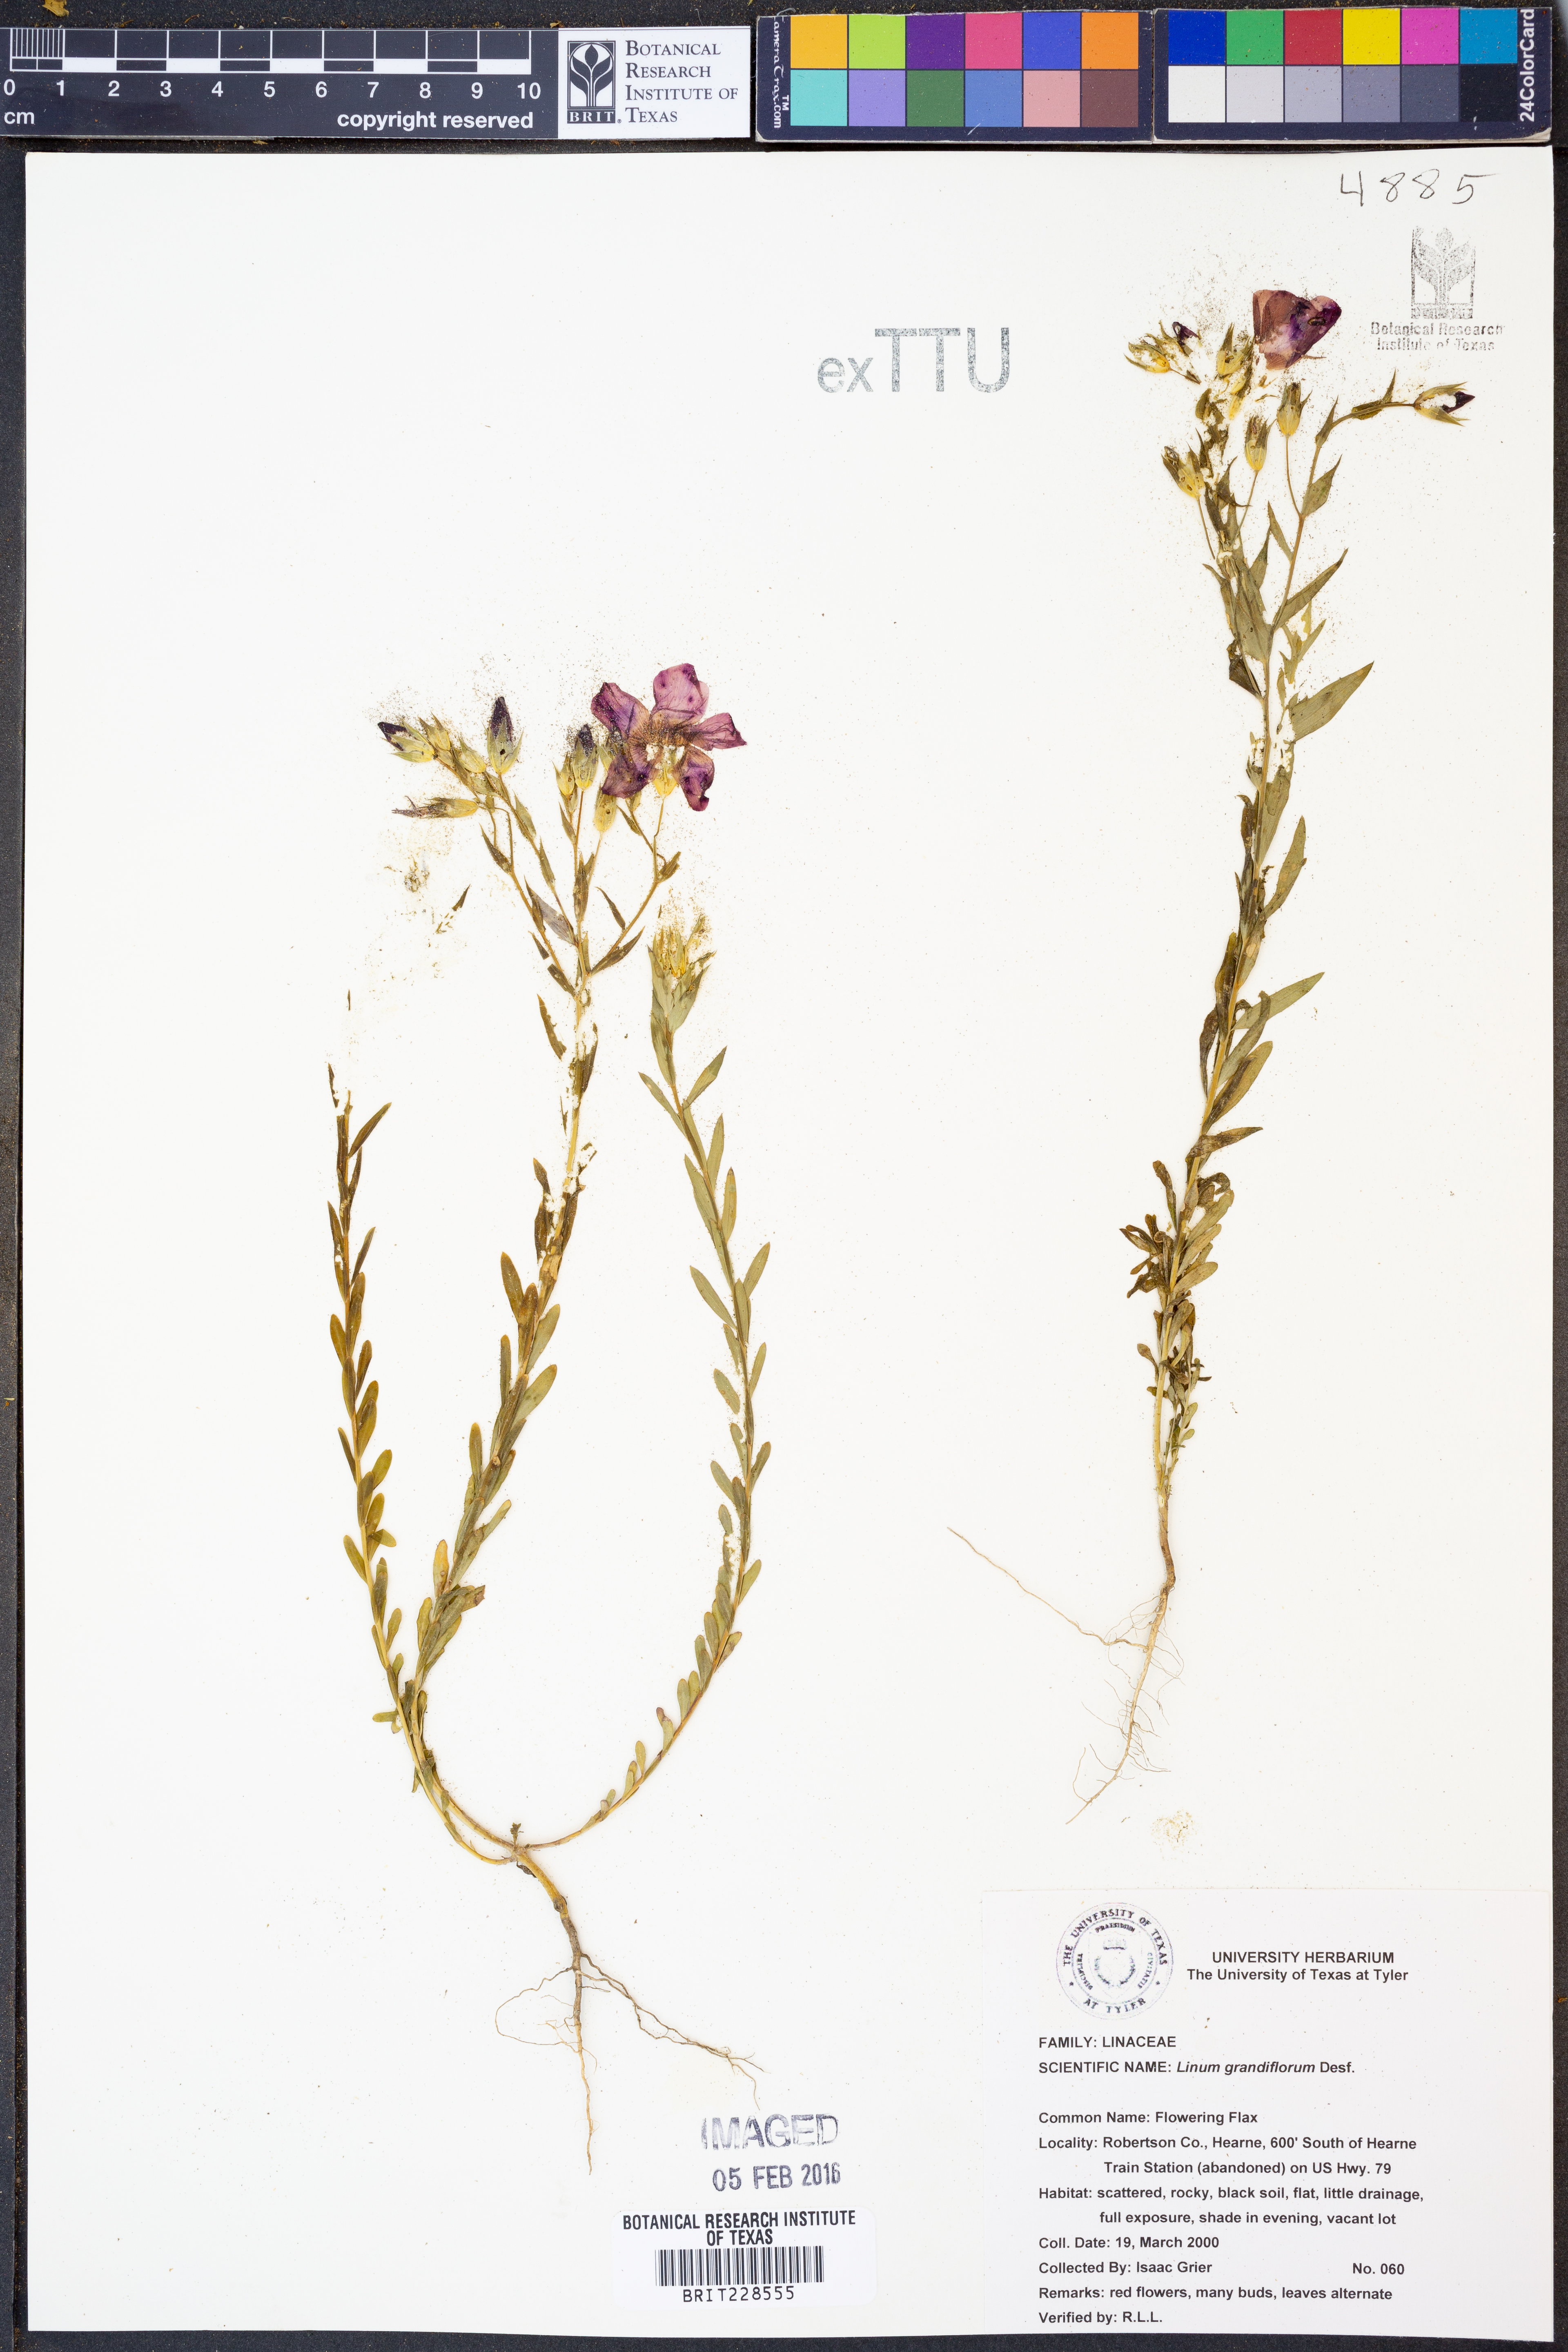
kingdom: Plantae
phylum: Tracheophyta
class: Magnoliopsida
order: Malpighiales
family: Linaceae
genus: Linum
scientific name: Linum grandiflorum
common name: Crimson flax
